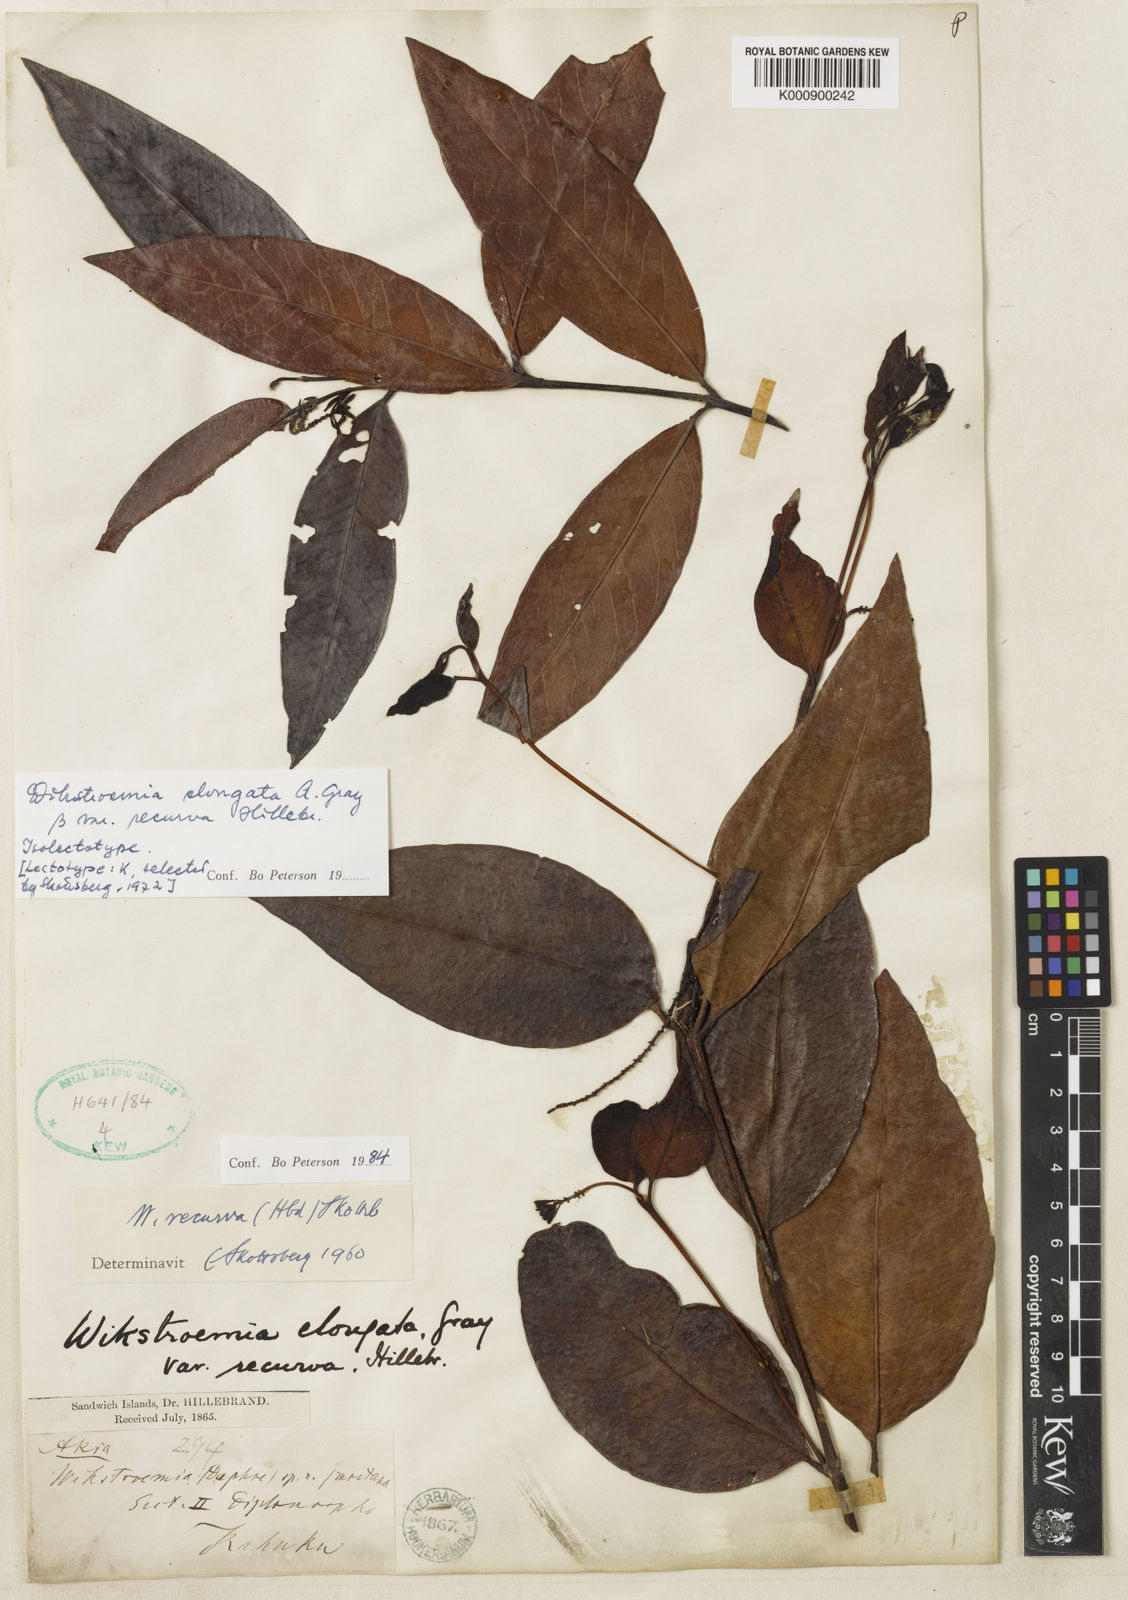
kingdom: Plantae
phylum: Tracheophyta
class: Magnoliopsida
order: Malvales
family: Thymelaeaceae
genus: Wikstroemia
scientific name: Wikstroemia oahuensis
